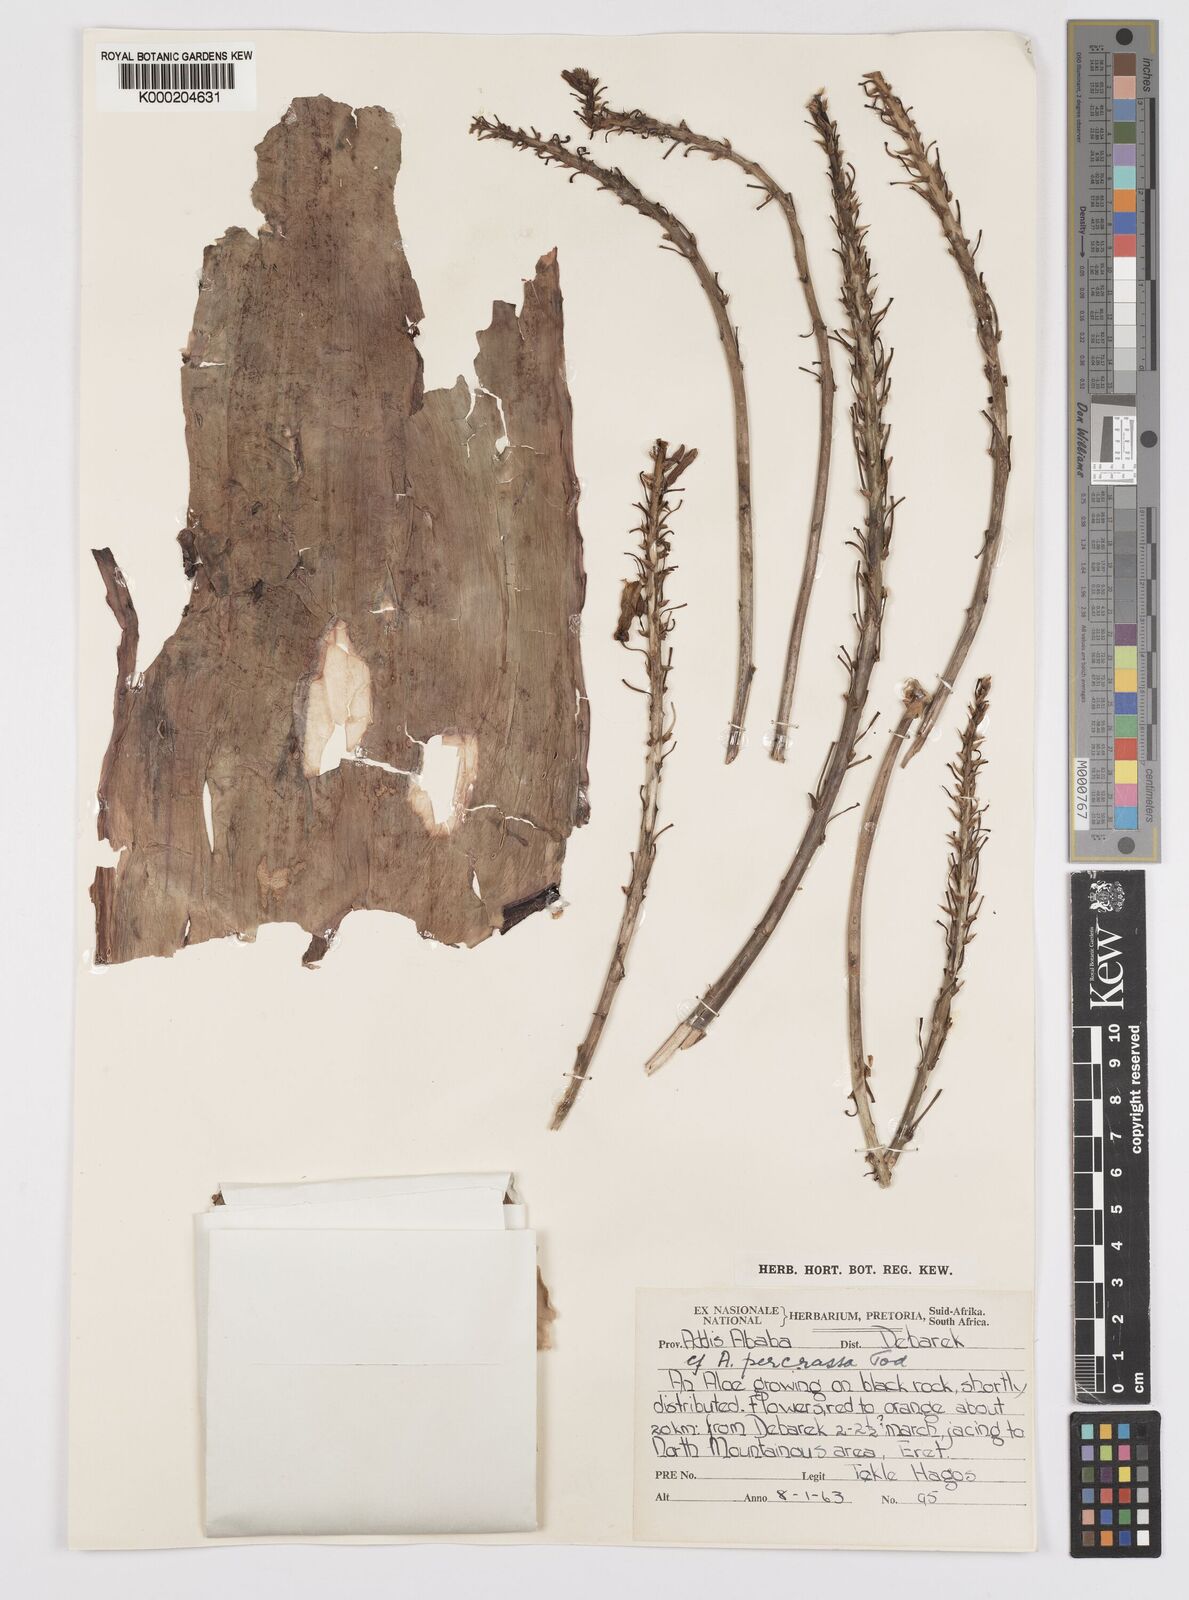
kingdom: Plantae
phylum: Tracheophyta
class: Liliopsida
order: Asparagales
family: Asphodelaceae
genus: Aloe
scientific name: Aloe percrassa
